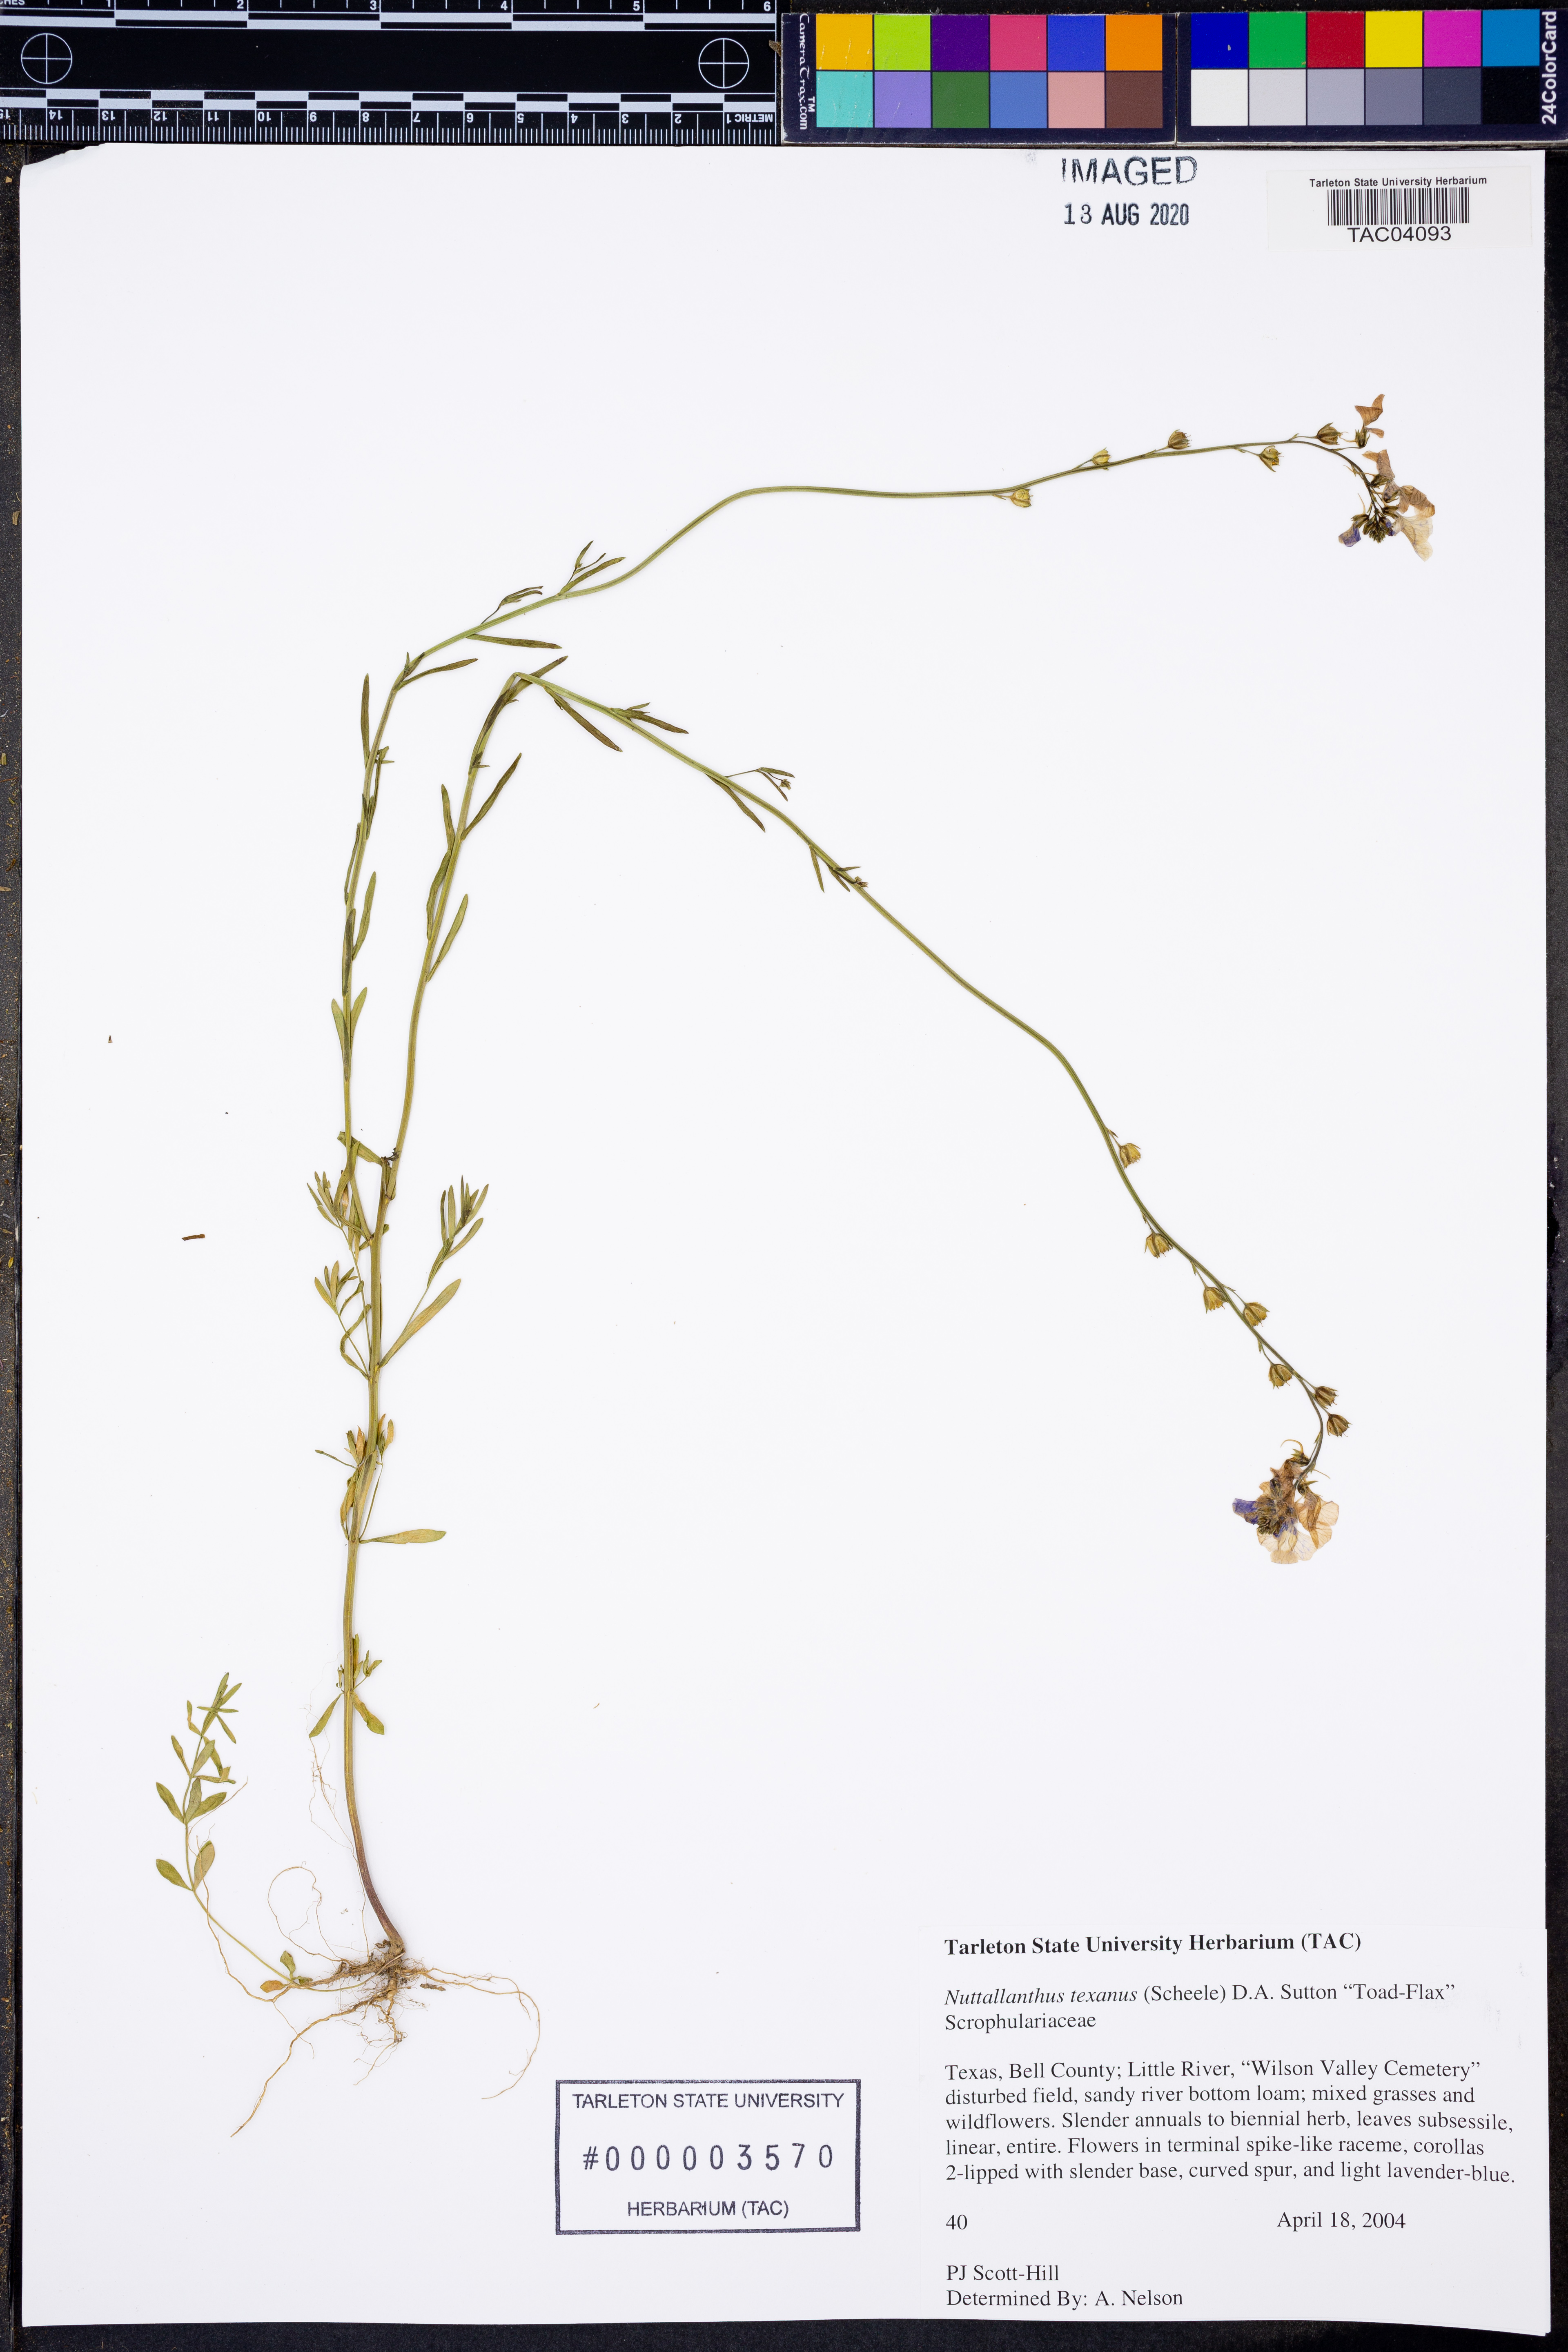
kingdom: Plantae
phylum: Tracheophyta
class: Magnoliopsida
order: Lamiales
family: Plantaginaceae
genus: Nuttallanthus
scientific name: Nuttallanthus texanus
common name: Texas toadflax
